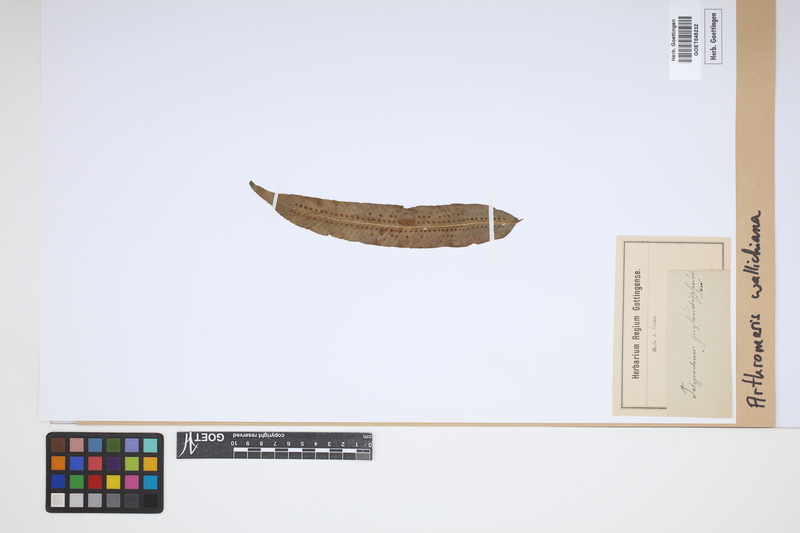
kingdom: Plantae
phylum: Tracheophyta
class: Polypodiopsida
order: Polypodiales
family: Polypodiaceae
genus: Selliguea
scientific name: Selliguea capitellata
